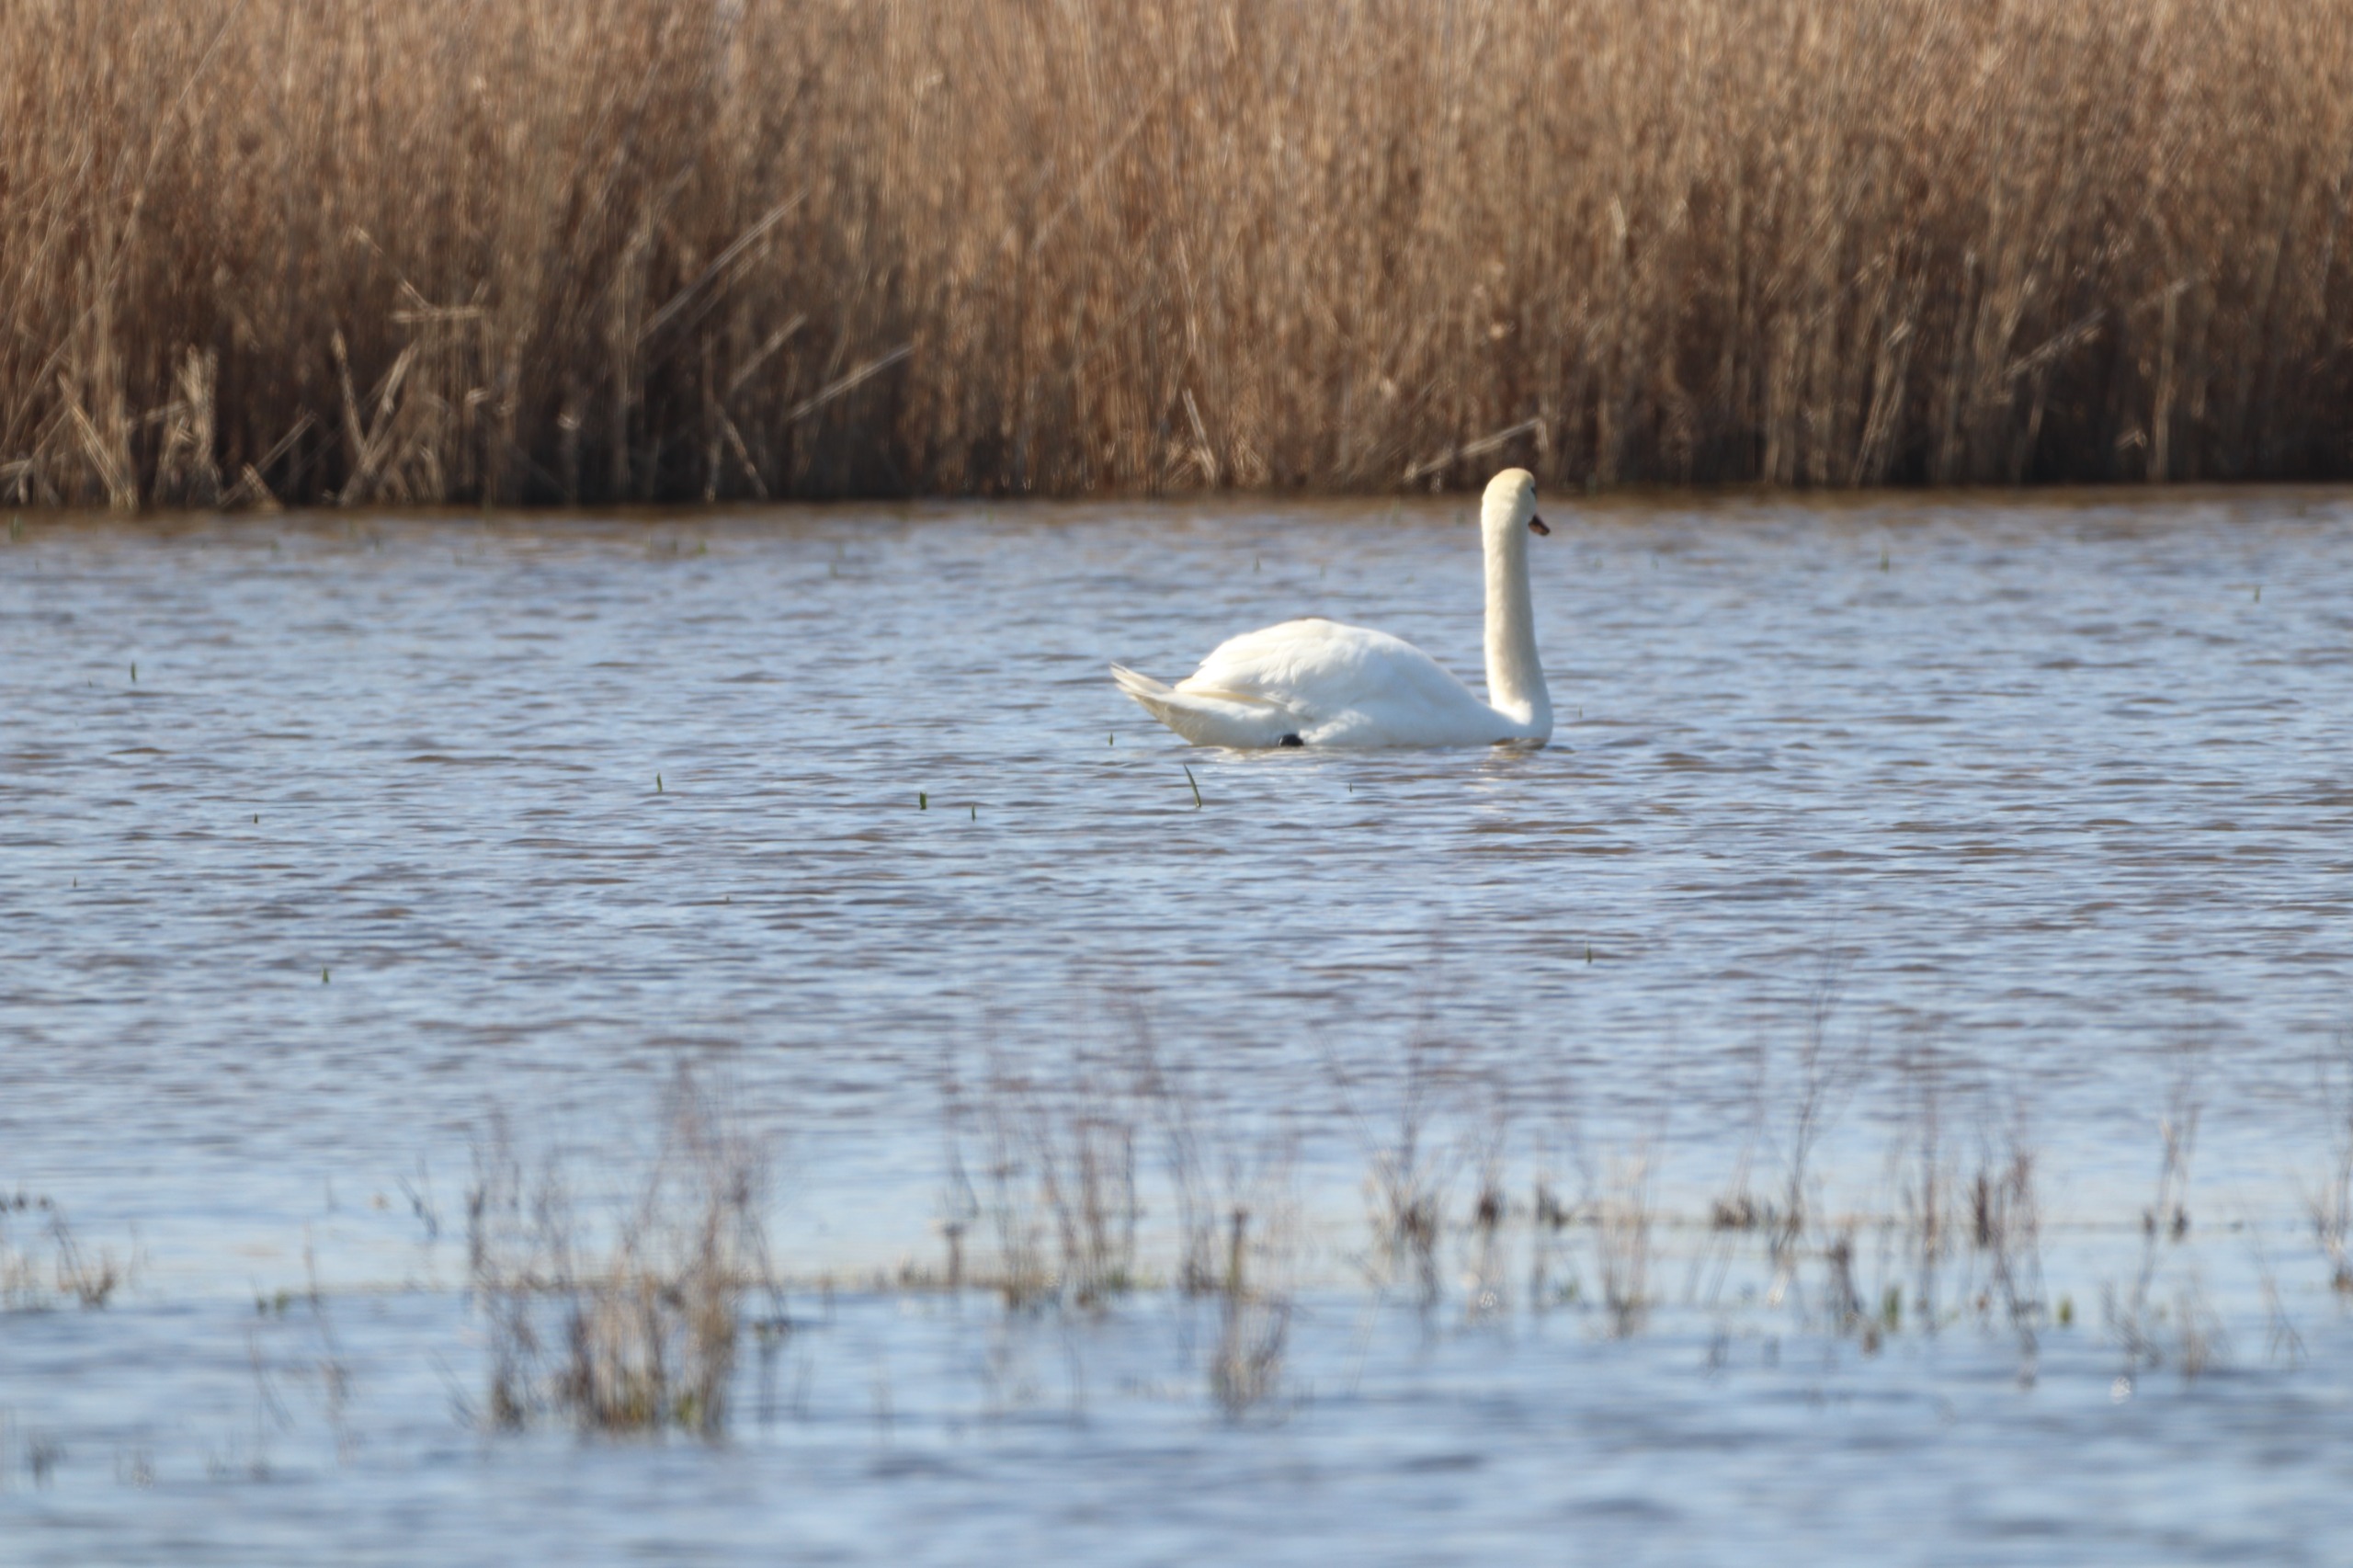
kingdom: Animalia
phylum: Chordata
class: Aves
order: Anseriformes
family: Anatidae
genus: Cygnus
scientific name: Cygnus olor
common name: Knopsvane
